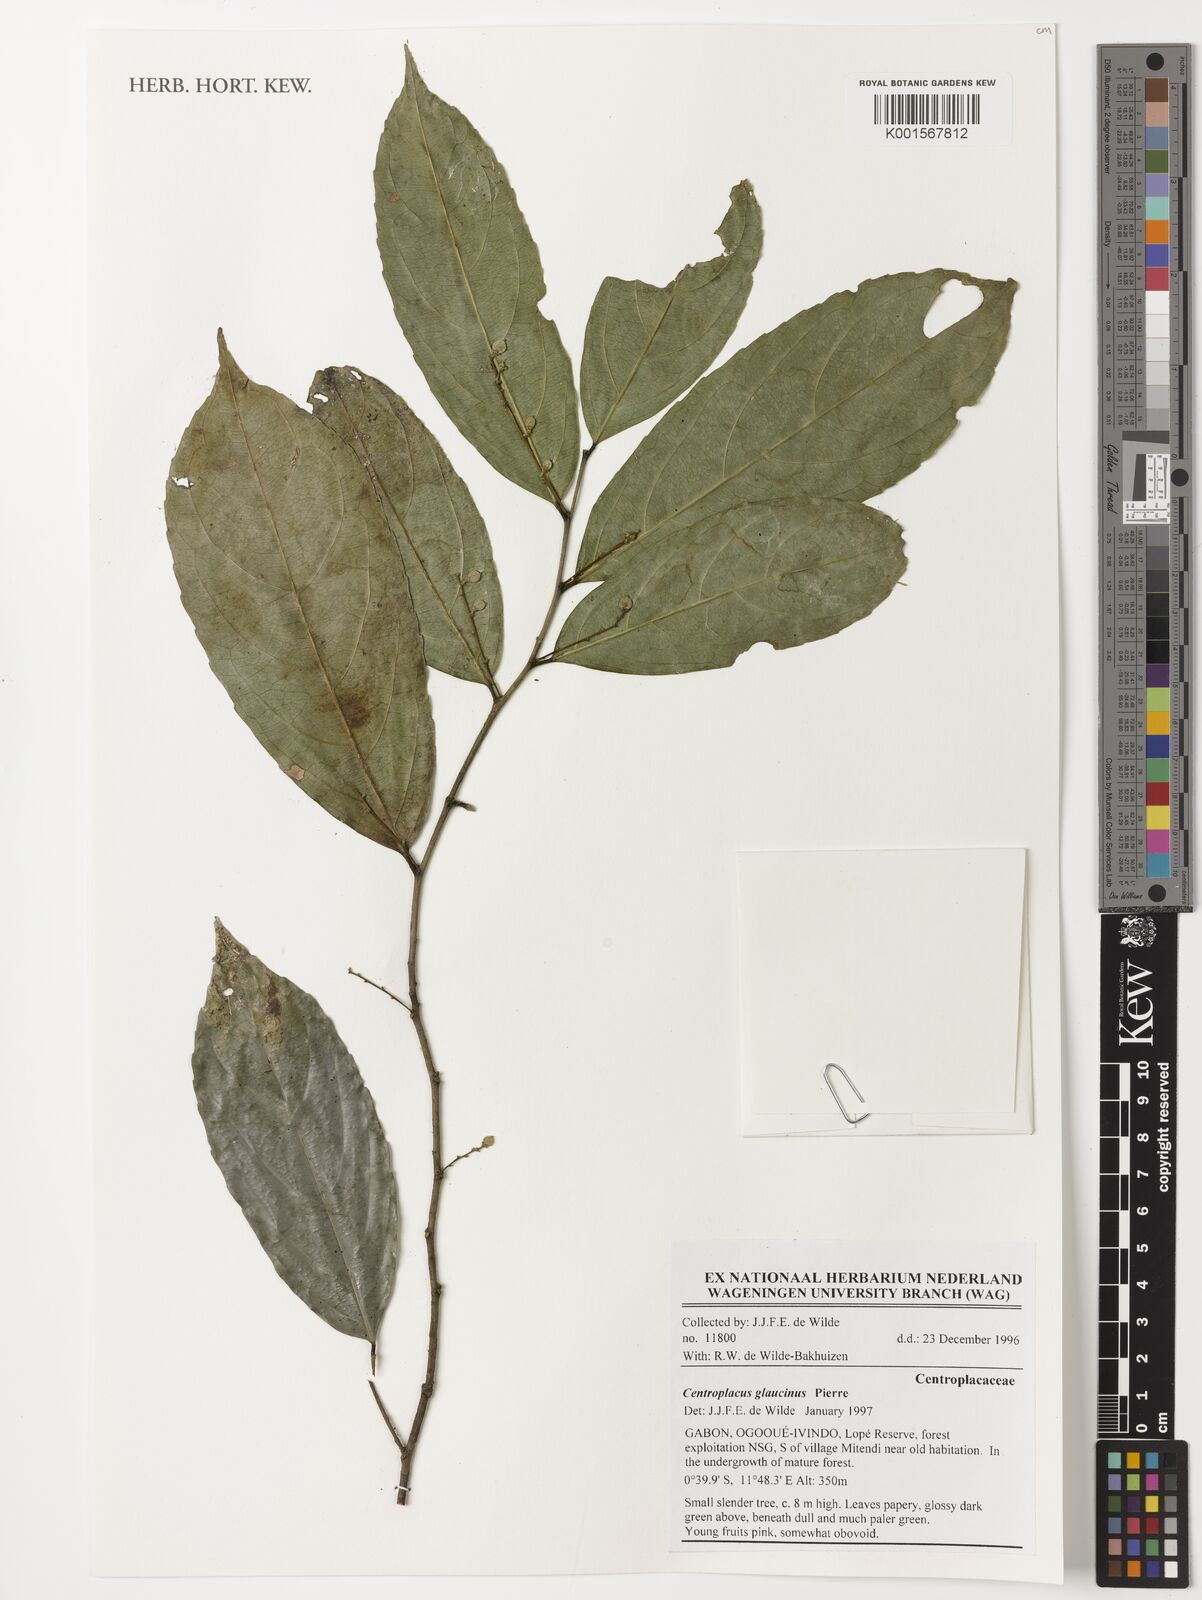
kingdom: Plantae
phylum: Tracheophyta
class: Magnoliopsida
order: Malpighiales
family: Centroplacaceae
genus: Centroplacus
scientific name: Centroplacus glaucinus
